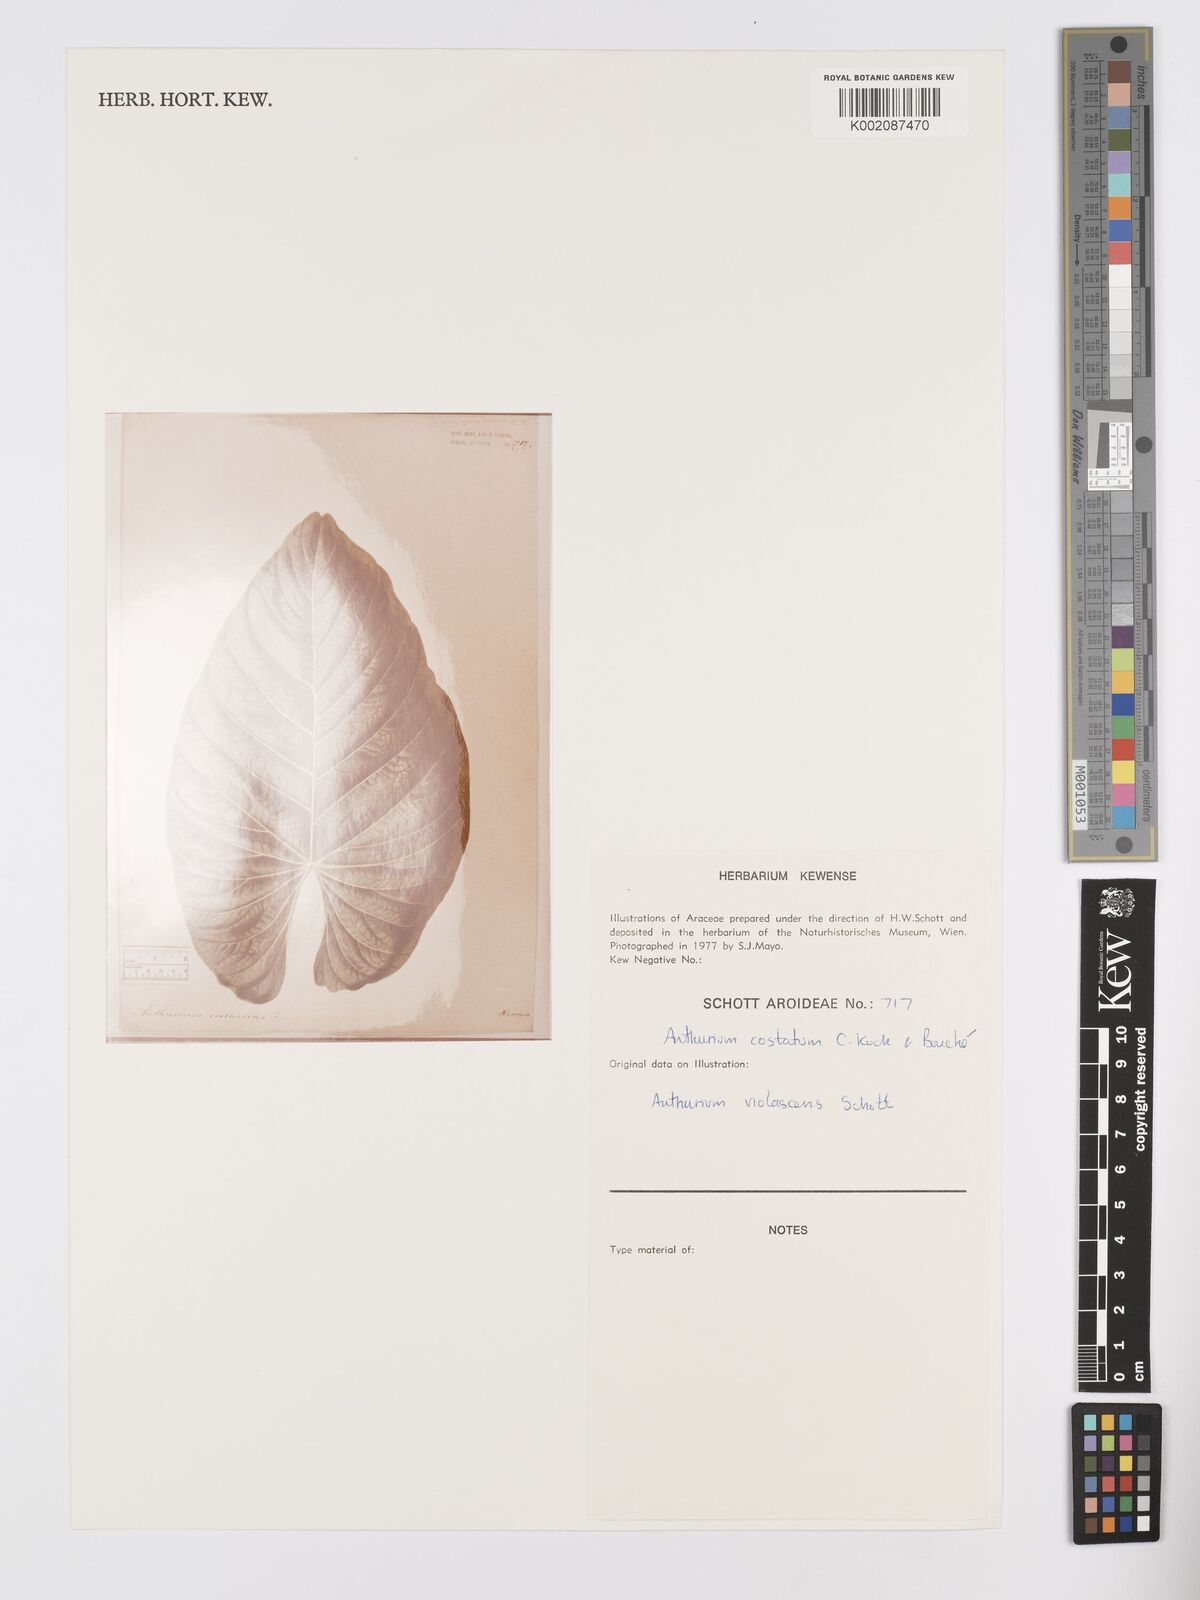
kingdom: Plantae
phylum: Tracheophyta
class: Liliopsida
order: Alismatales
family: Araceae
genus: Anthurium
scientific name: Anthurium macrophyllum
